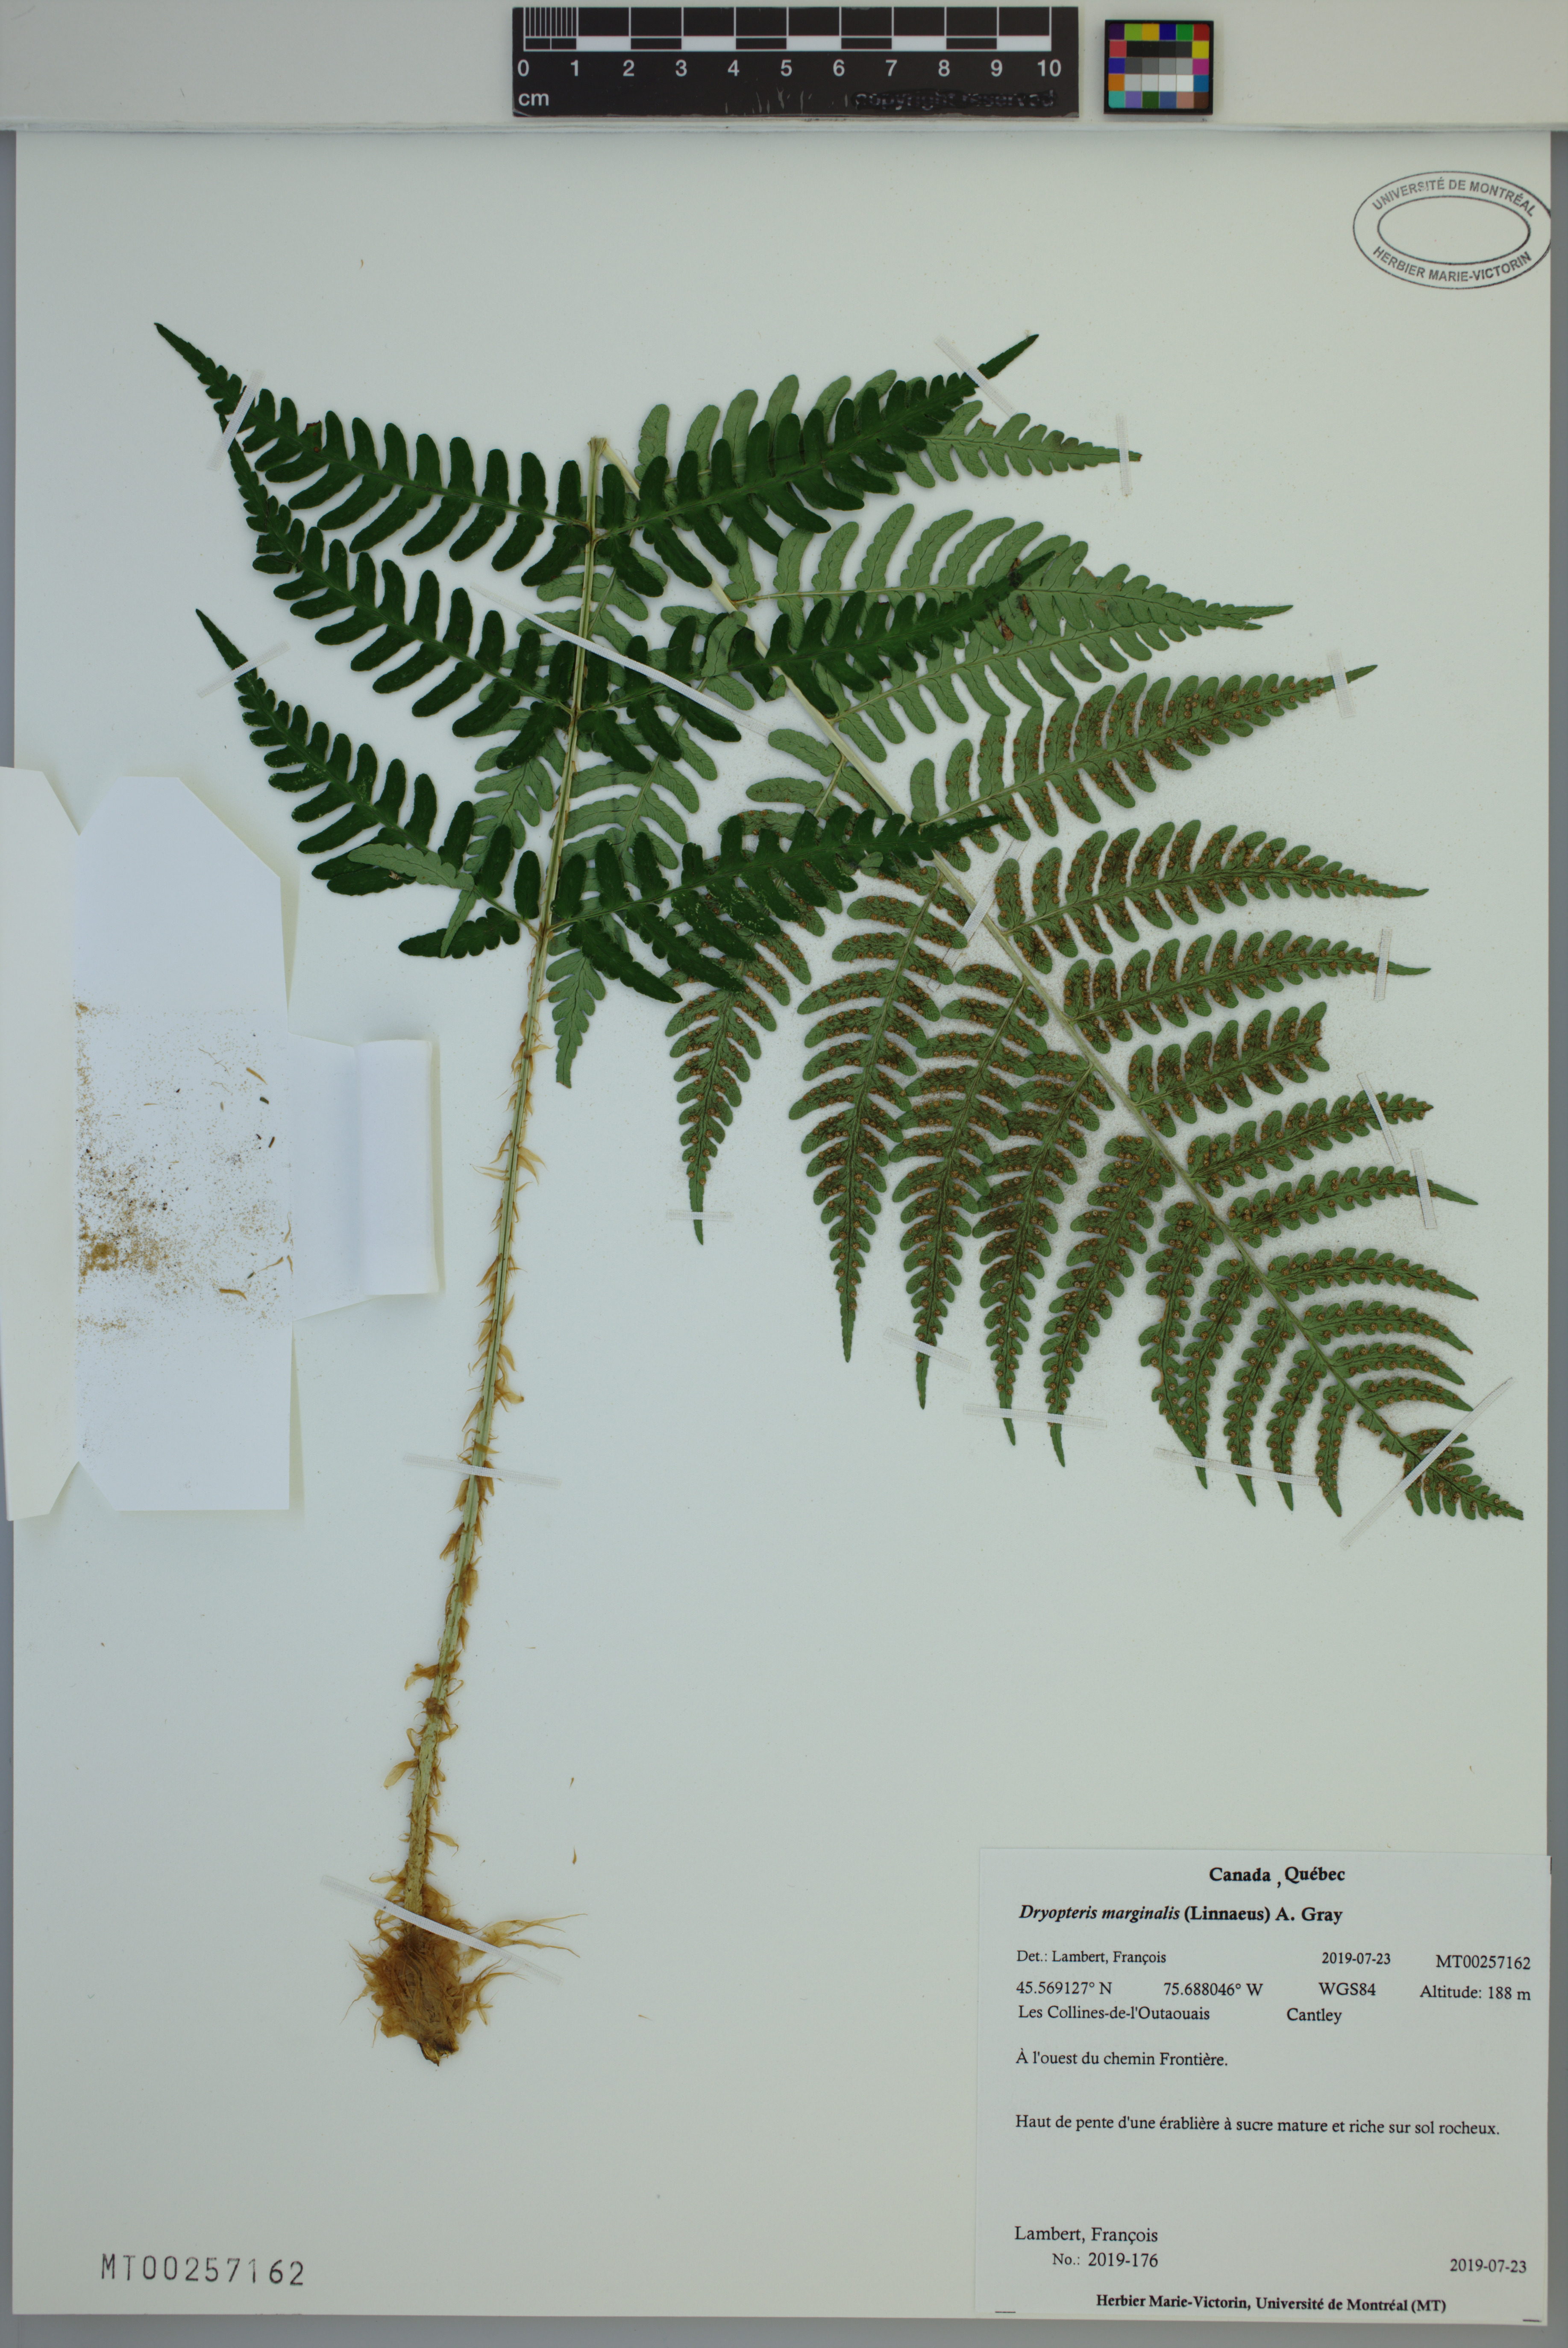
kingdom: Plantae
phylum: Tracheophyta
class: Polypodiopsida
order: Polypodiales
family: Dryopteridaceae
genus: Dryopteris
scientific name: Dryopteris marginalis
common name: Marginal wood fern
